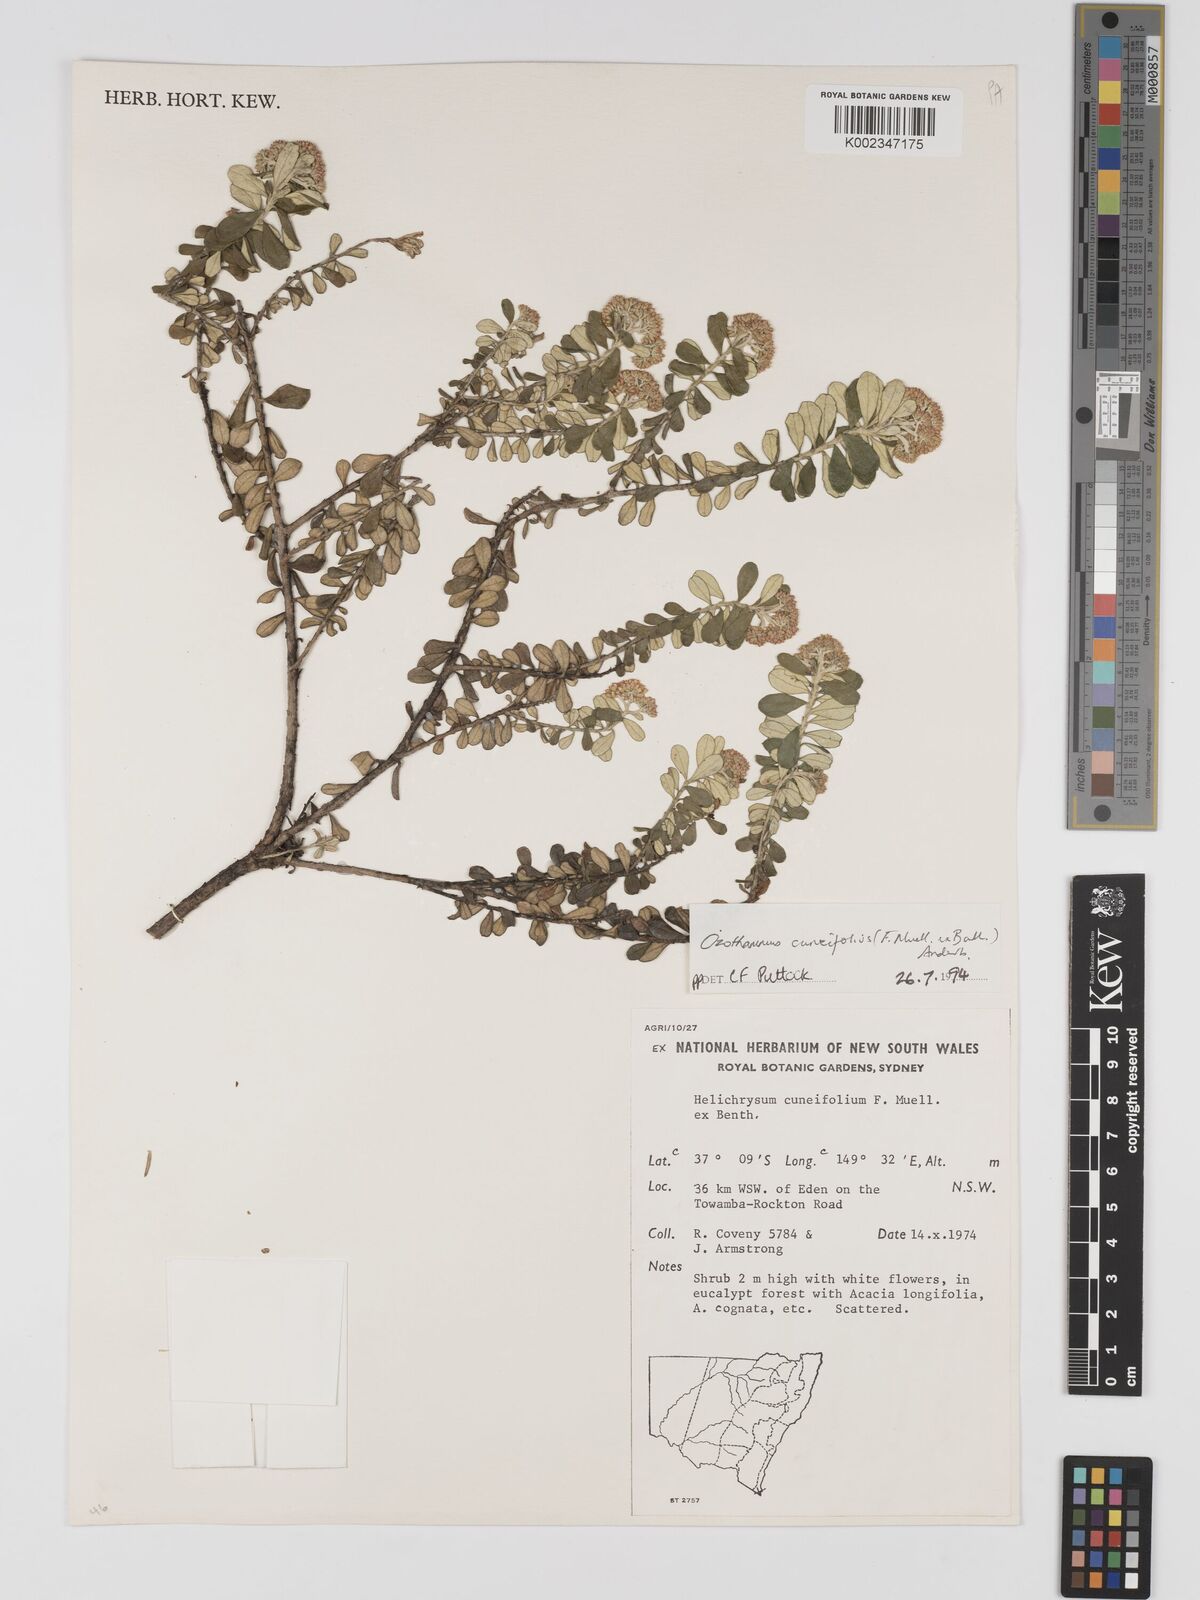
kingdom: Plantae
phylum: Tracheophyta
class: Magnoliopsida
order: Asterales
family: Asteraceae
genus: Ozothamnus
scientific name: Ozothamnus cuneifolius
